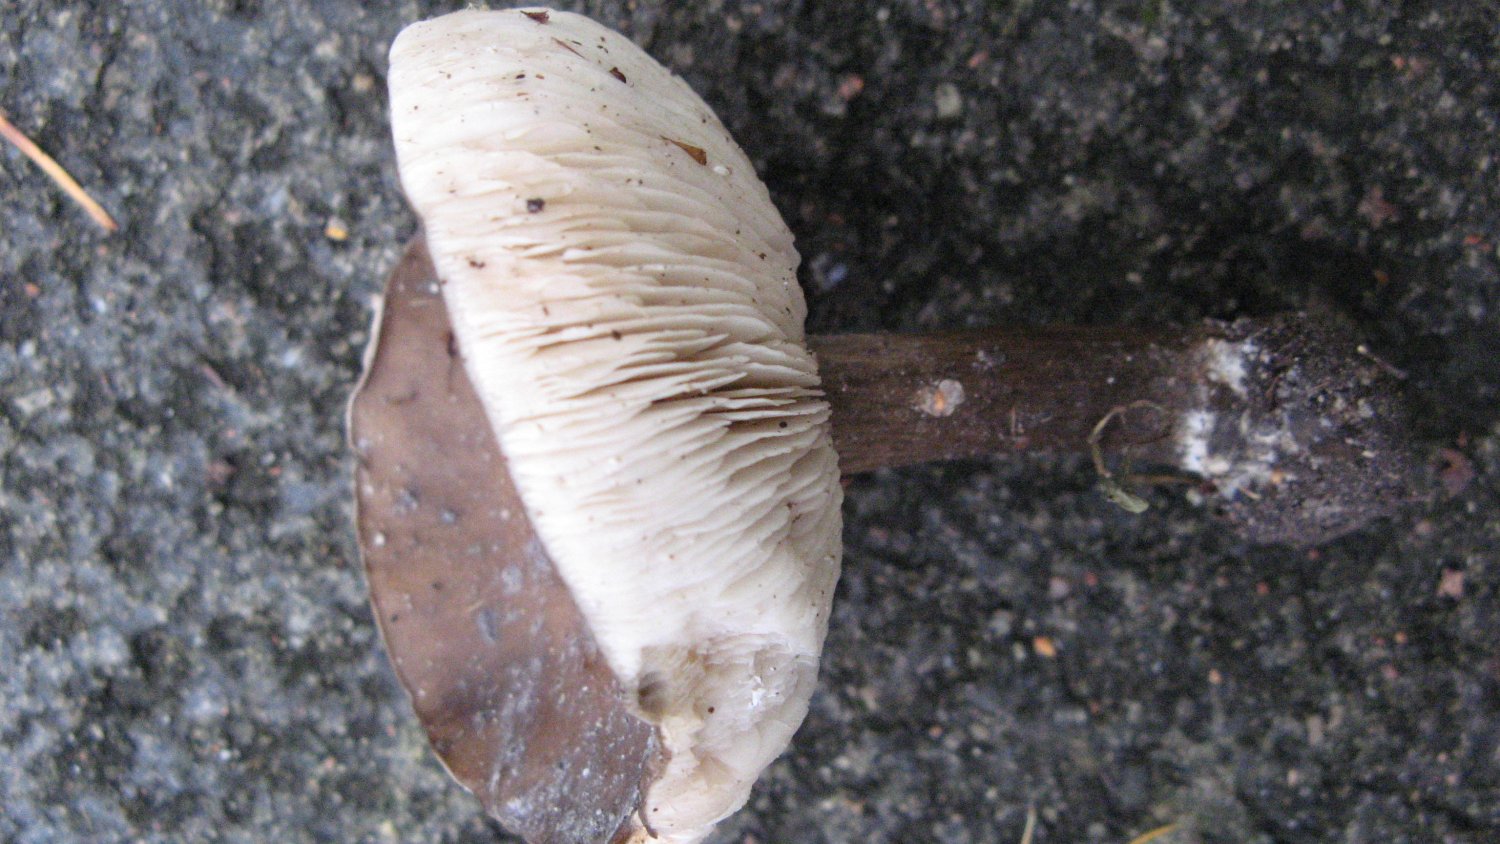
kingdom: Fungi
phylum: Basidiomycota
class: Agaricomycetes
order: Agaricales
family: Tricholomataceae
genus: Melanoleuca
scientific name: Melanoleuca polioleuca
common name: almindelig munkehat
